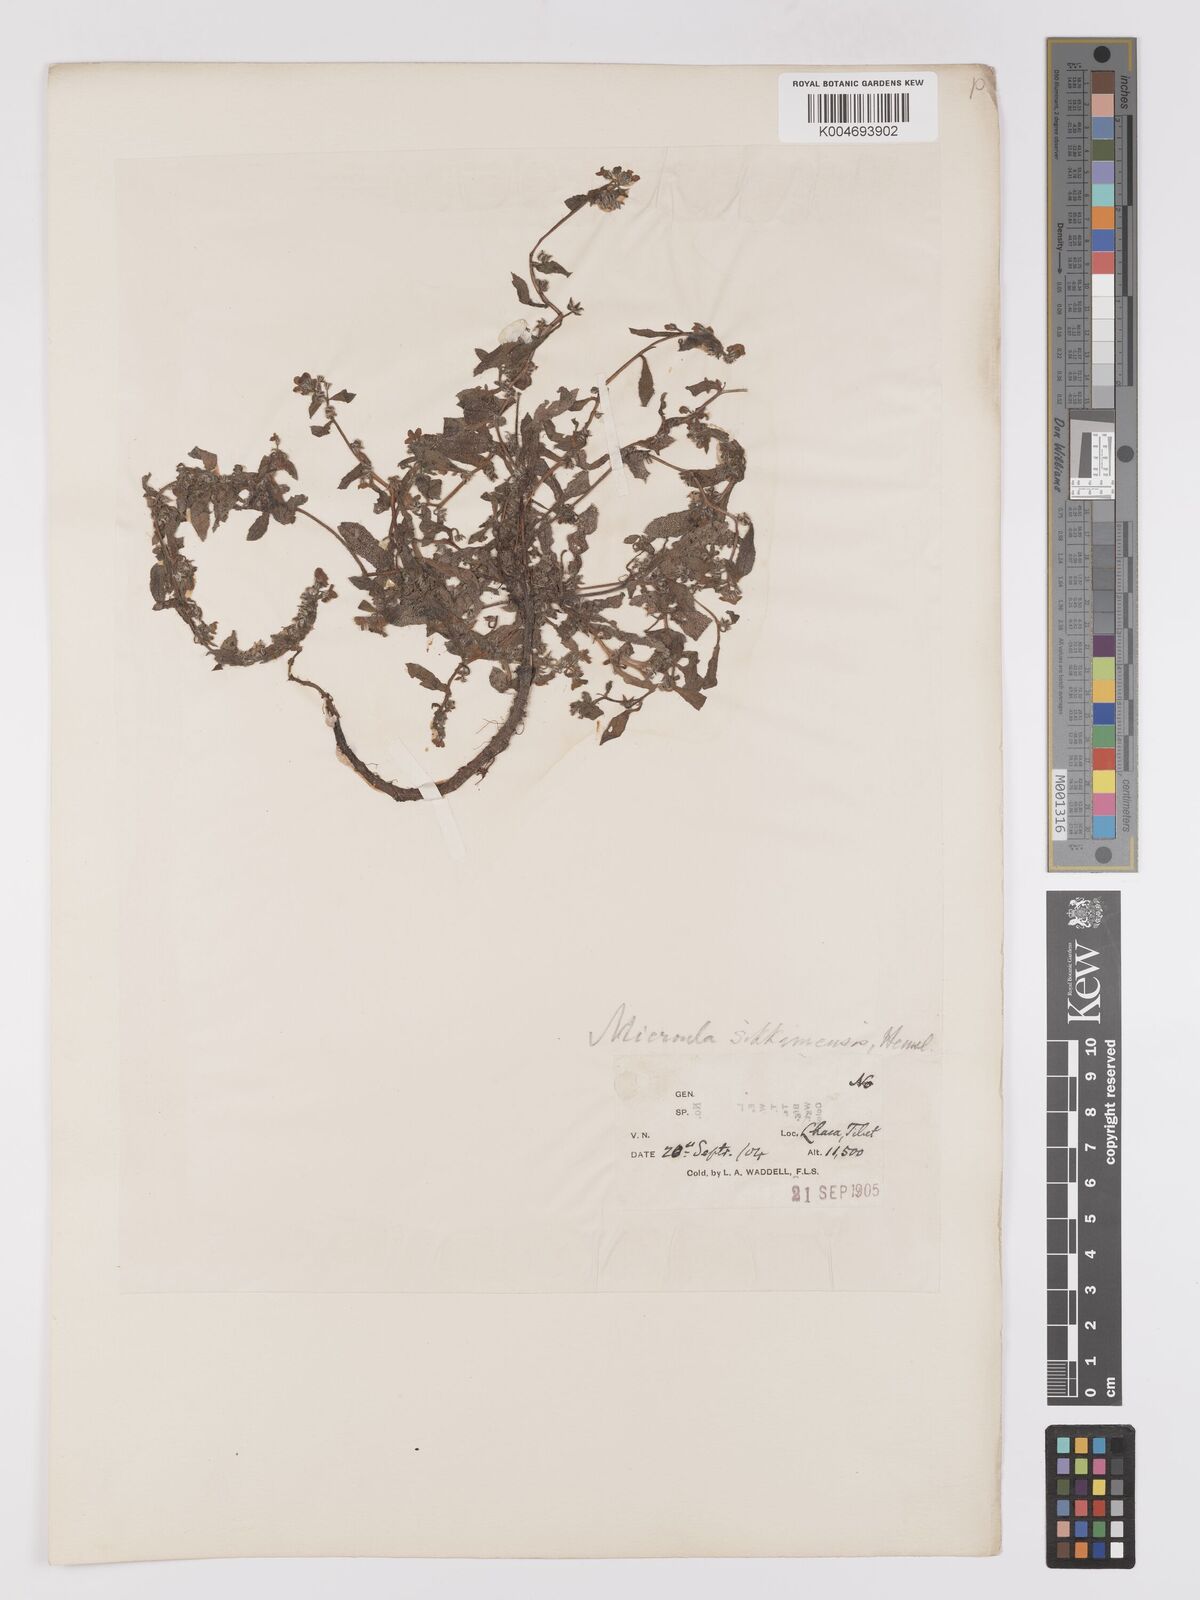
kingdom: Plantae
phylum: Tracheophyta
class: Magnoliopsida
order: Boraginales
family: Boraginaceae
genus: Microula
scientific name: Microula sikkimensis
